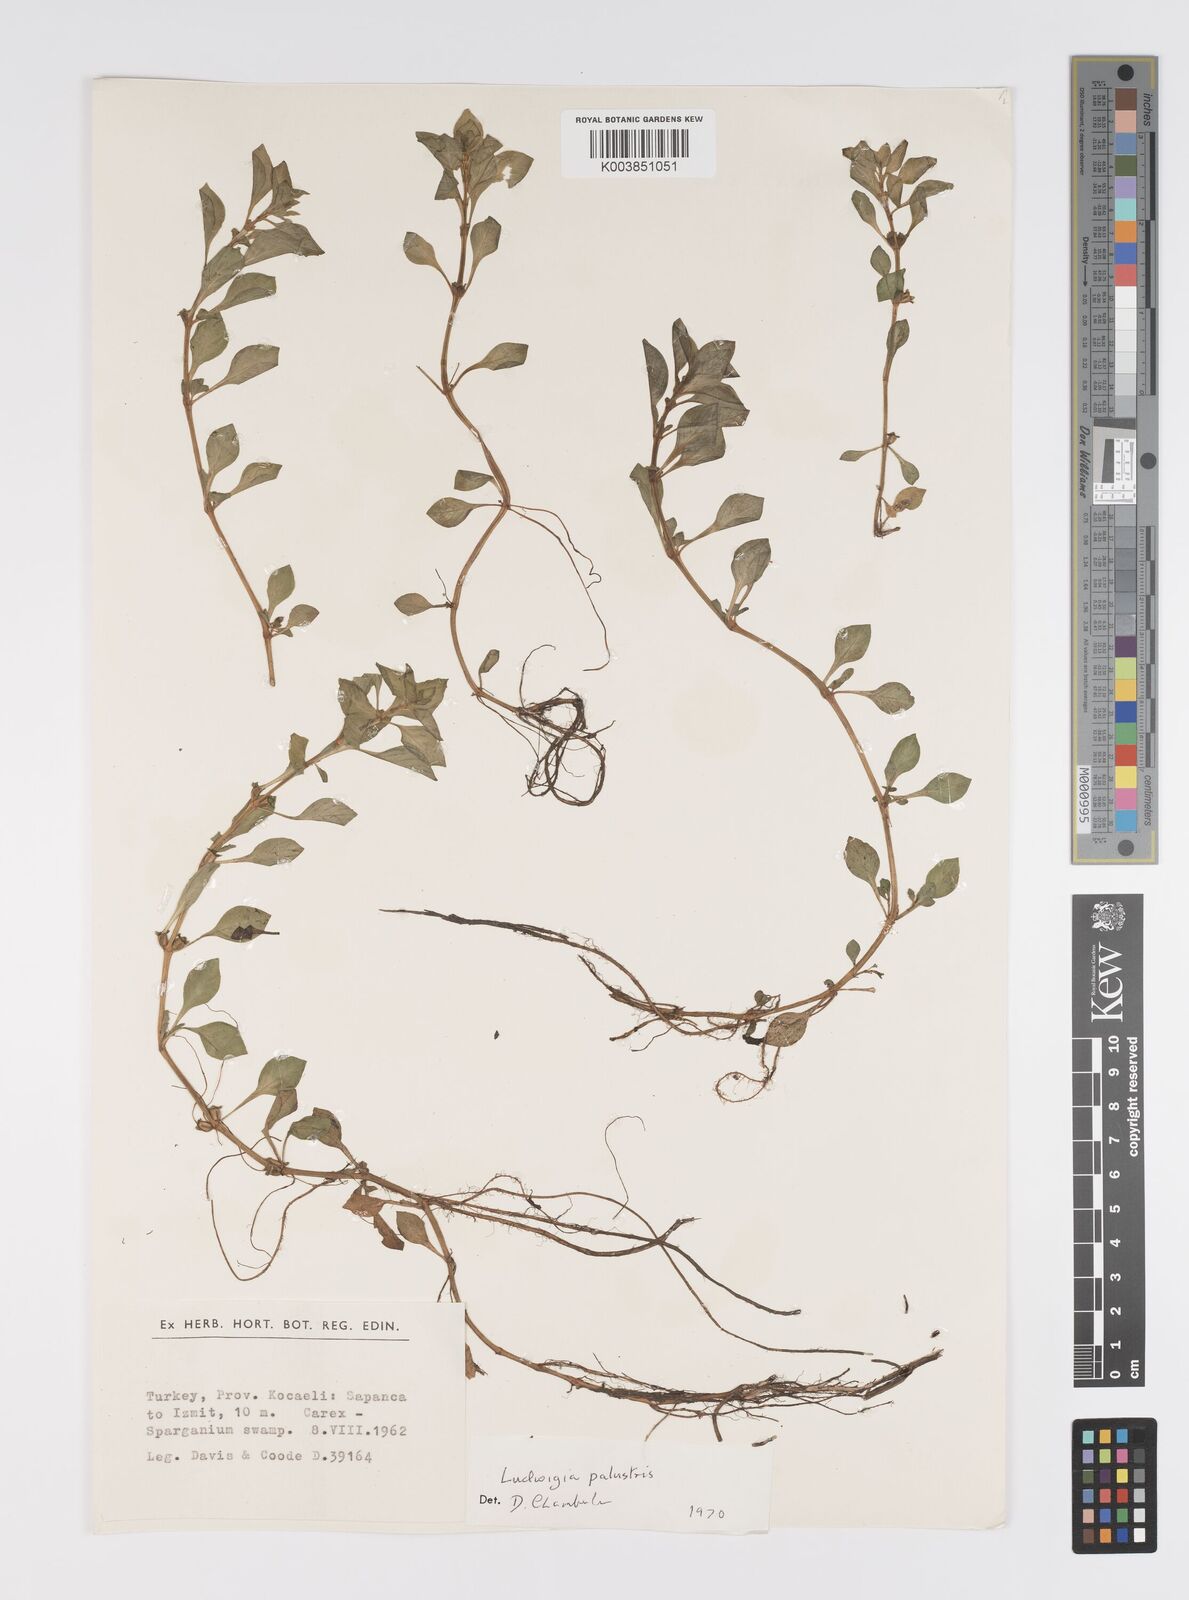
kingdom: Plantae
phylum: Tracheophyta
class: Magnoliopsida
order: Myrtales
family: Onagraceae
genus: Ludwigia
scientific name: Ludwigia palustris
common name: Hampshire-purslane
